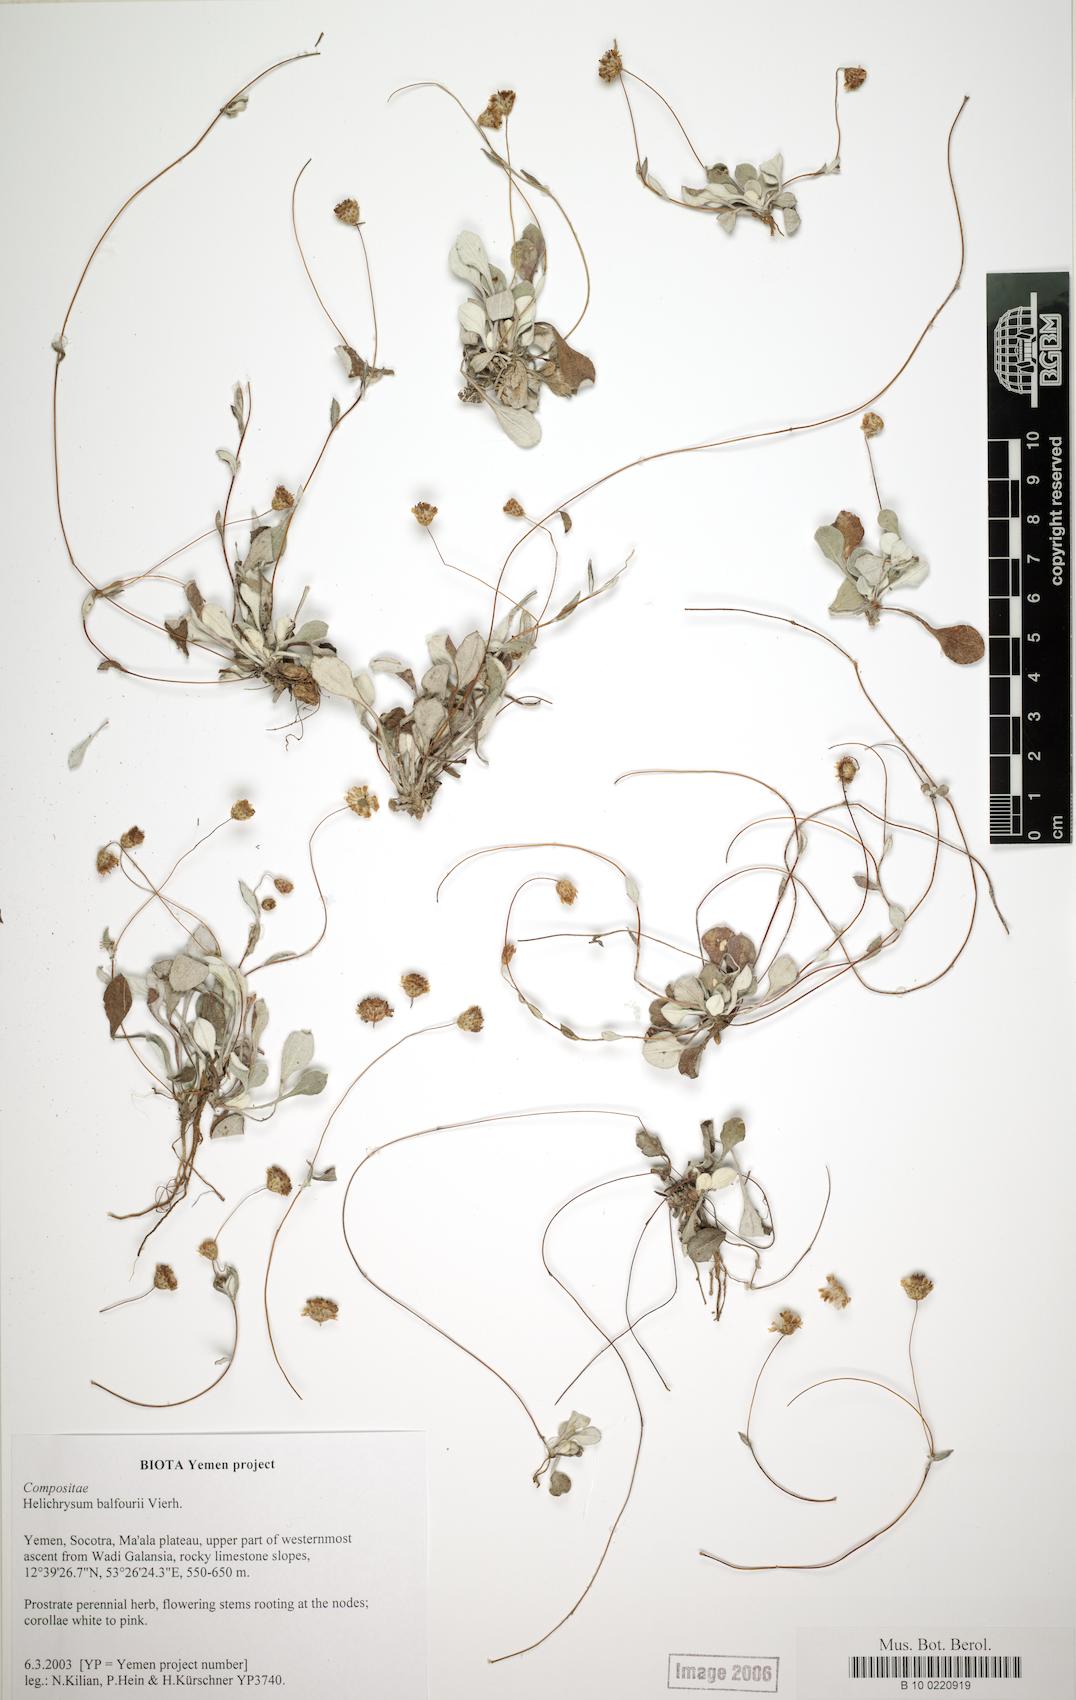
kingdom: Plantae
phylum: Tracheophyta
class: Magnoliopsida
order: Asterales
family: Asteraceae
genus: Libinhania
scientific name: Libinhania balfourii
